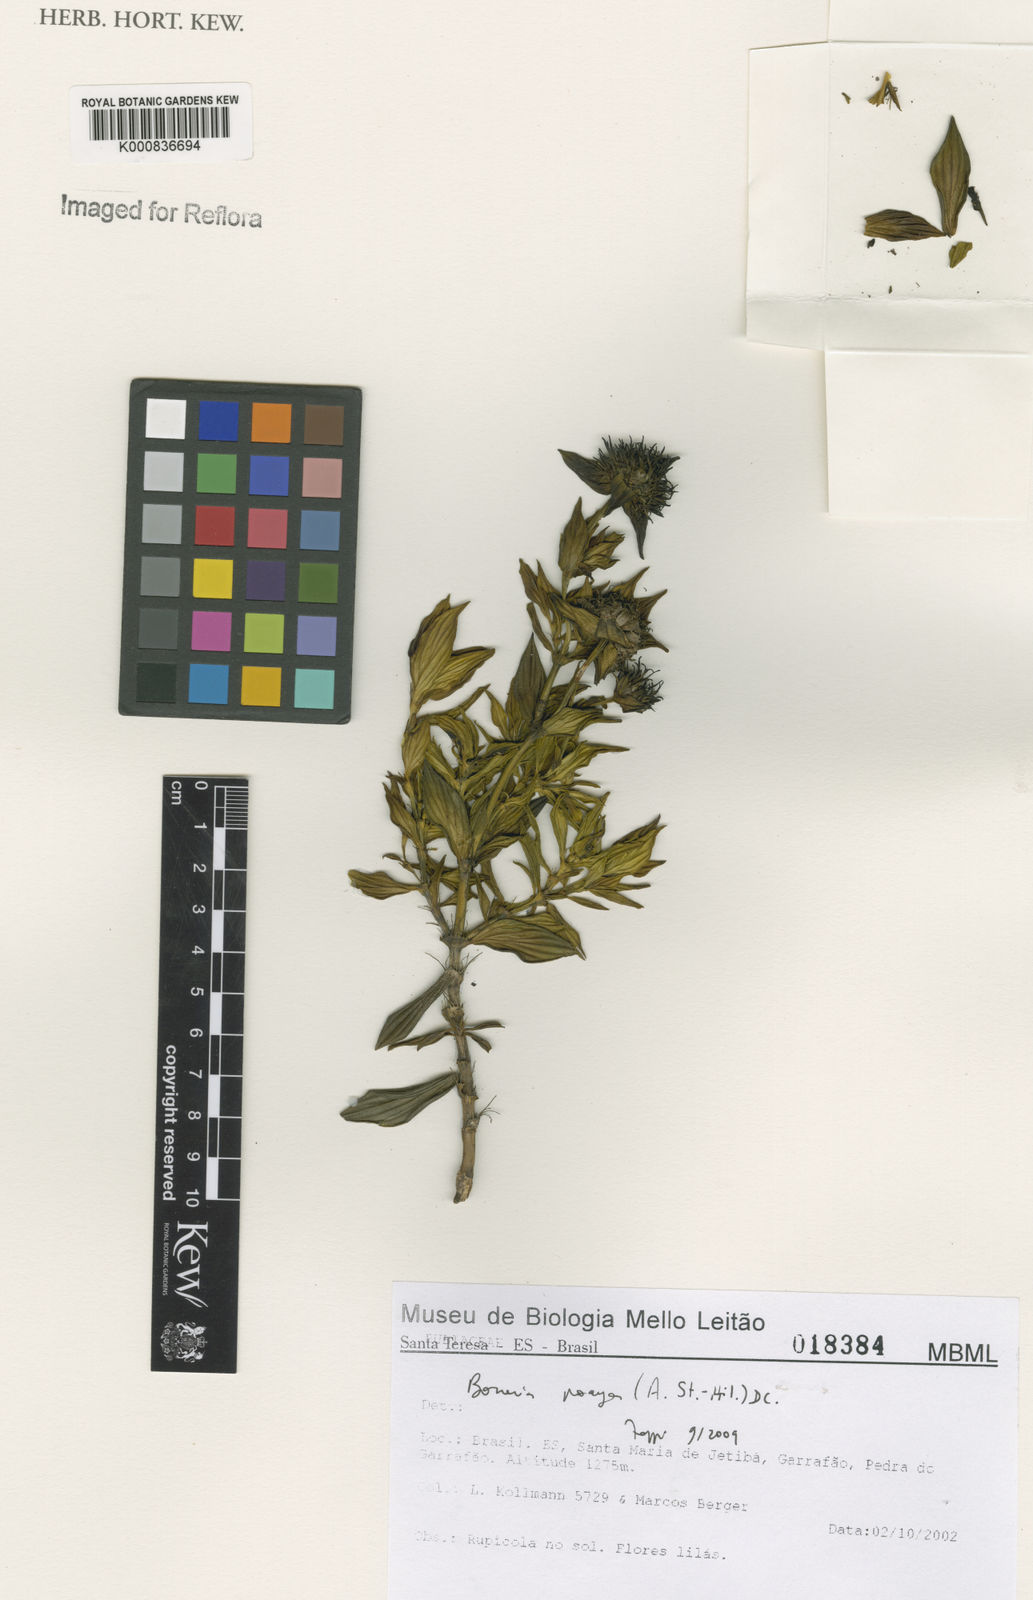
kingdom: Plantae
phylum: Tracheophyta
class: Magnoliopsida
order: Gentianales
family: Rubiaceae
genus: Spermacoce
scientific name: Spermacoce poaya
